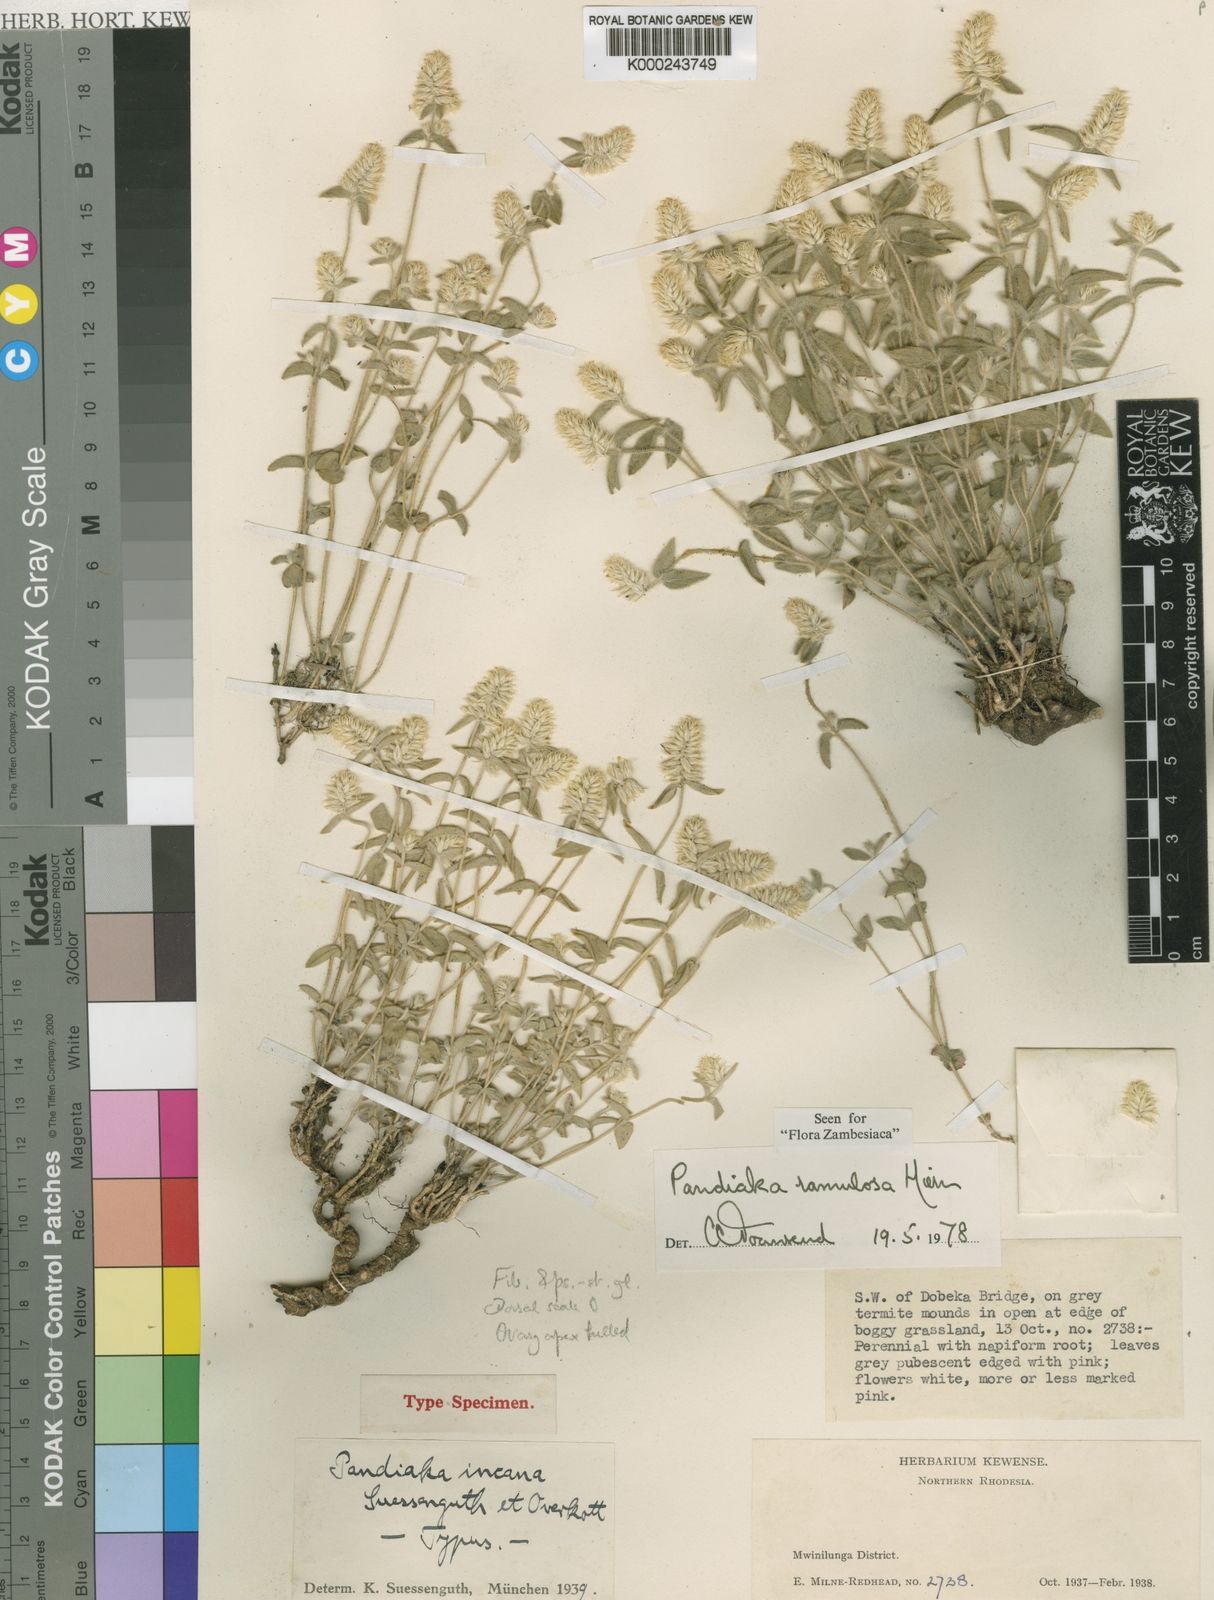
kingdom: Plantae
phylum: Tracheophyta
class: Magnoliopsida
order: Caryophyllales
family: Amaranthaceae
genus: Pandiaka
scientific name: Pandiaka
